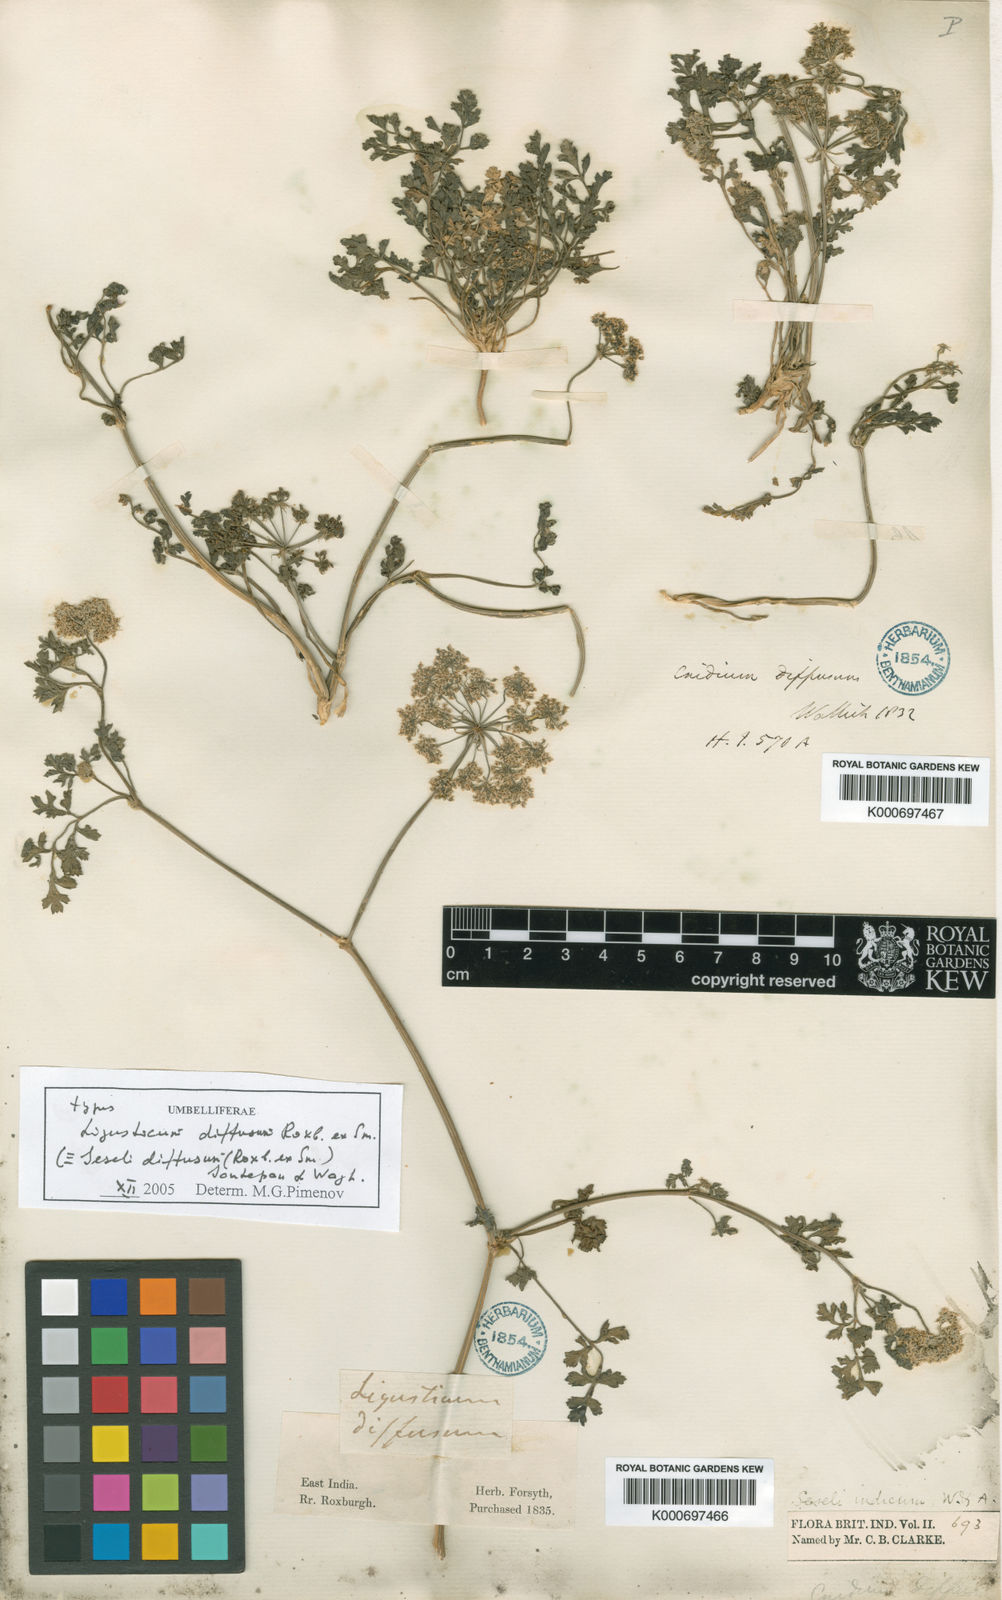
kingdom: Plantae
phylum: Tracheophyta
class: Magnoliopsida
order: Apiales
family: Apiaceae
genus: Psammogeton
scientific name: Psammogeton diffusum
